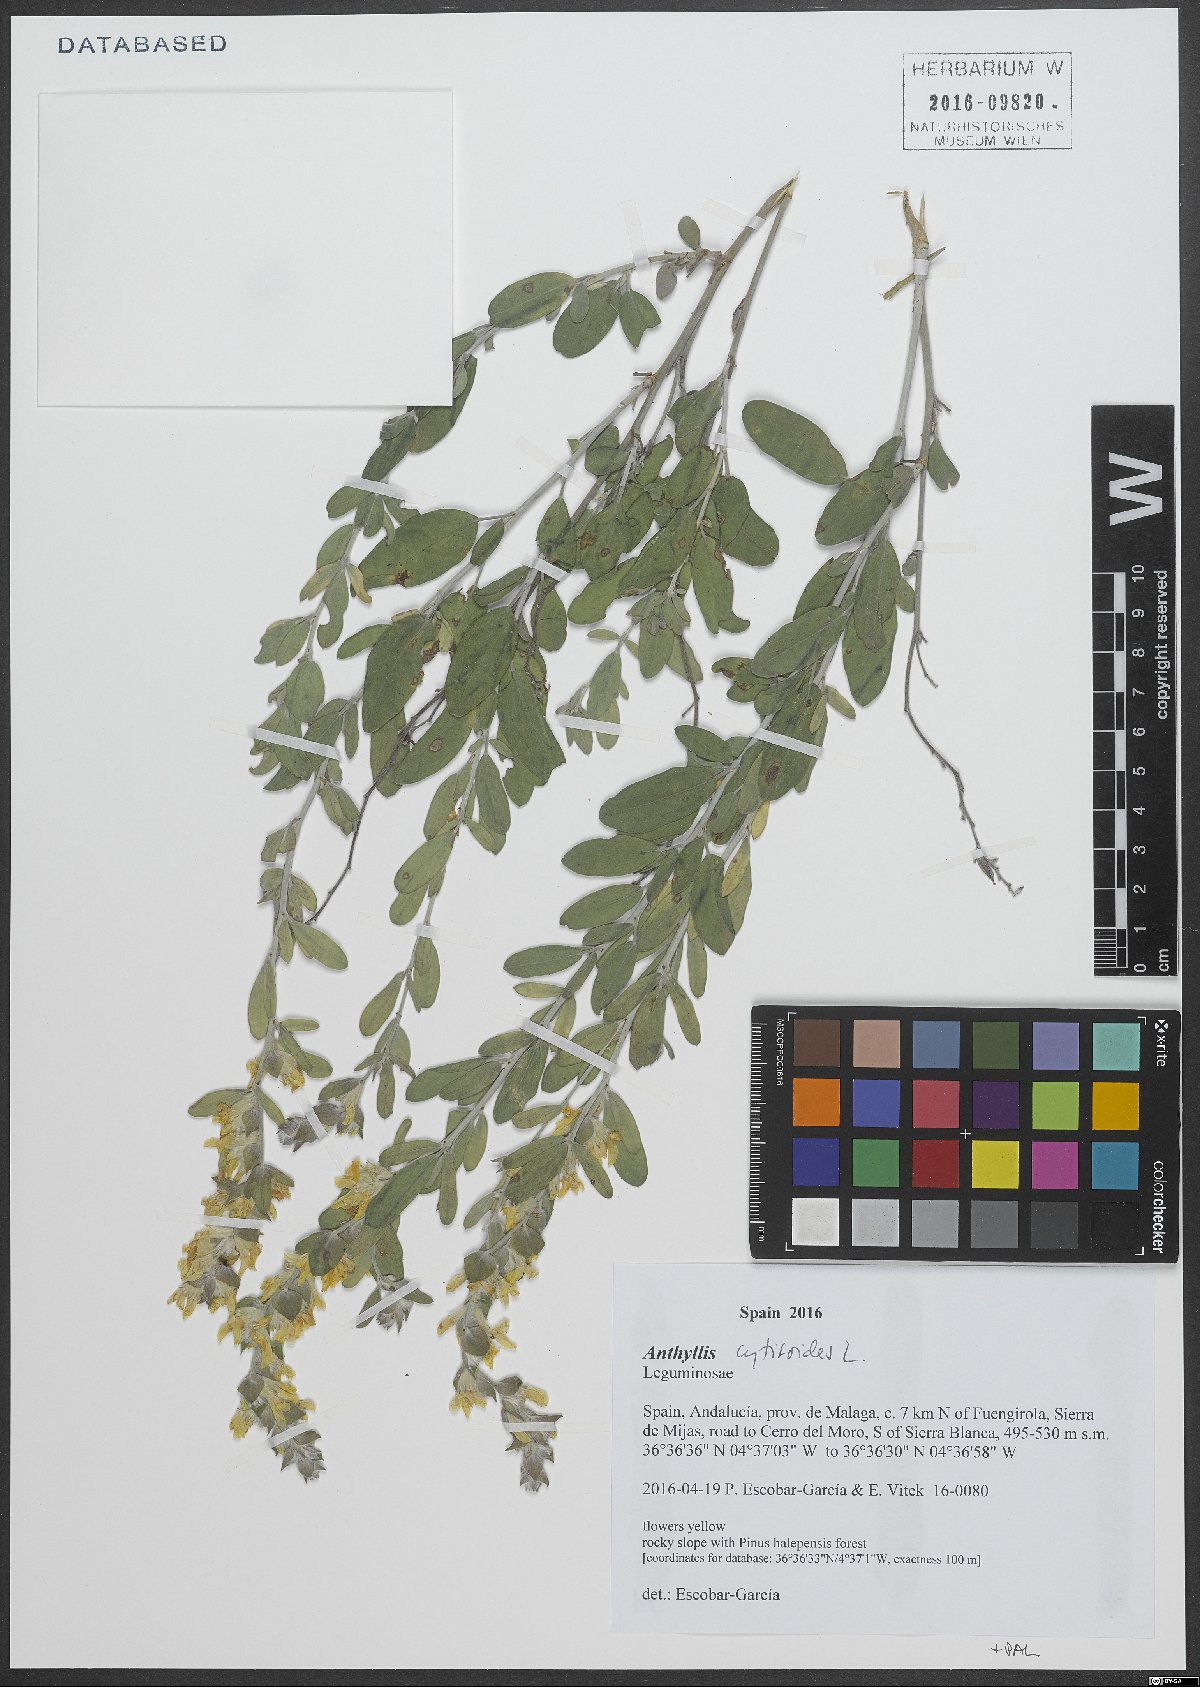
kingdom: Plantae
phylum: Tracheophyta
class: Magnoliopsida
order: Fabales
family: Fabaceae
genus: Anthyllis
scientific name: Anthyllis cytisoides
